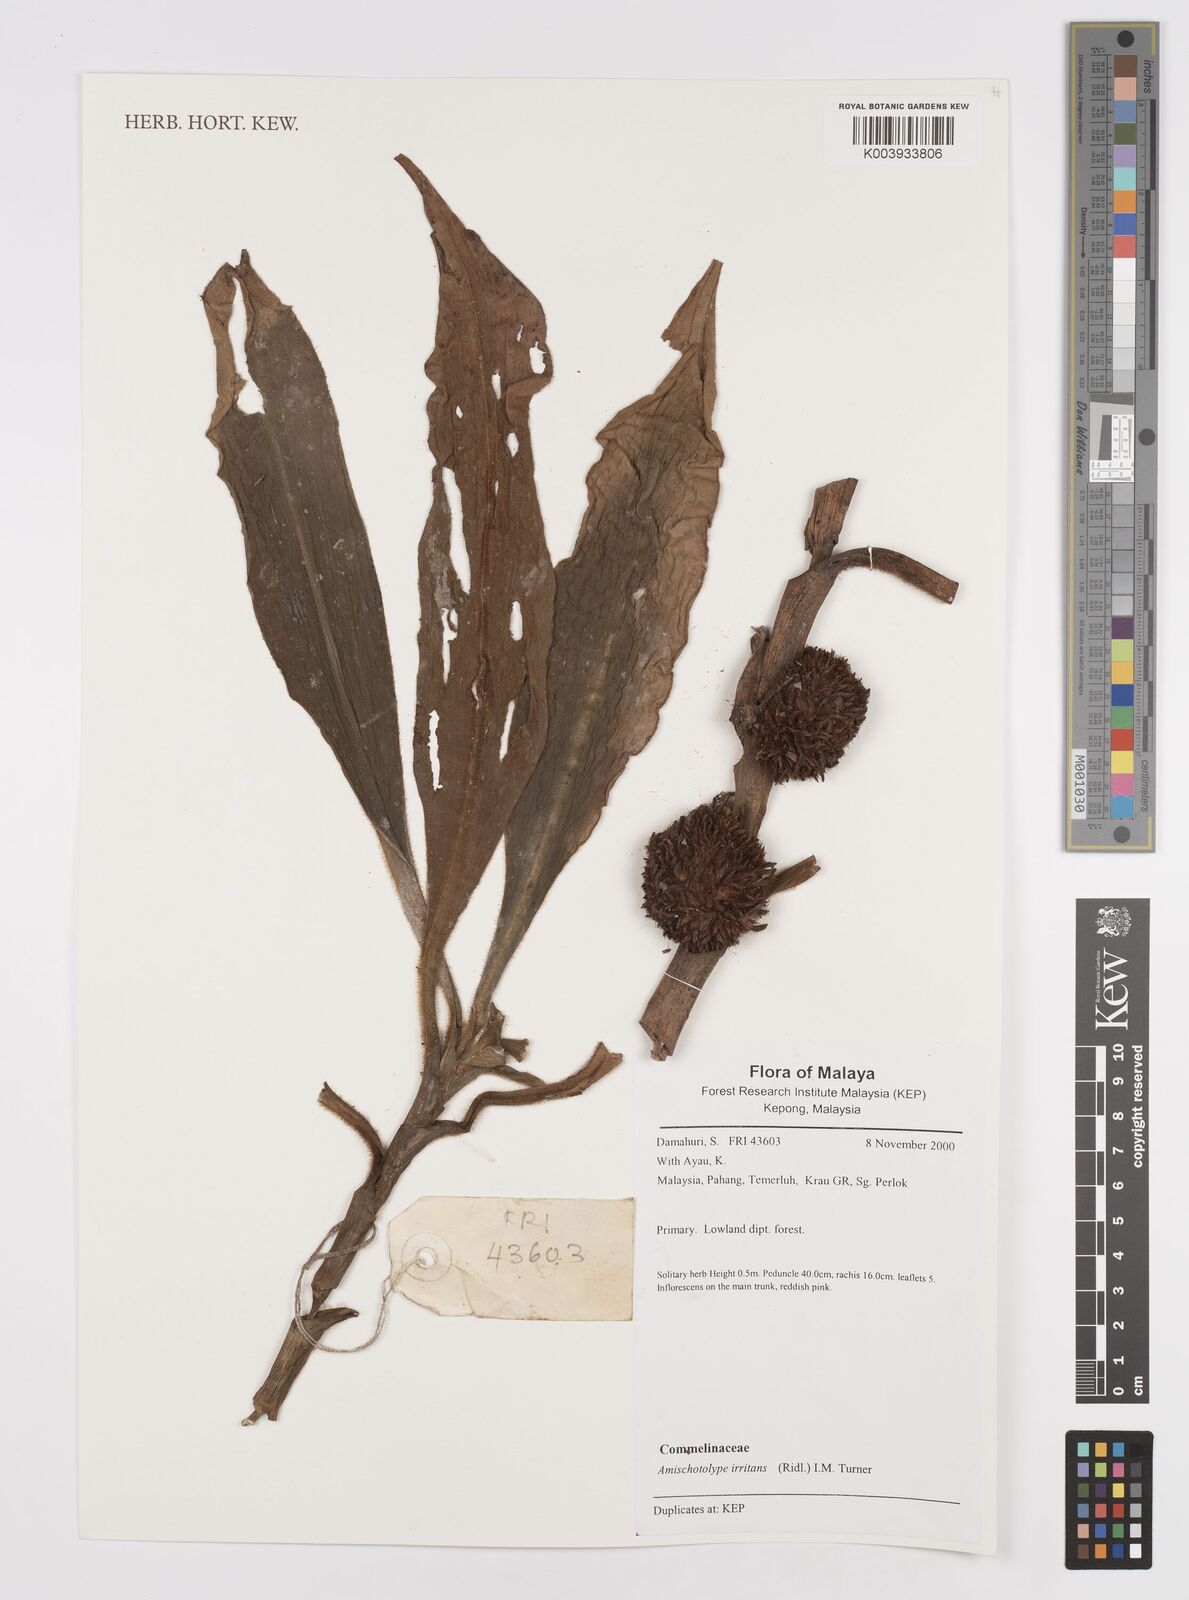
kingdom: Plantae
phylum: Tracheophyta
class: Liliopsida
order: Commelinales
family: Commelinaceae
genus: Amischotolype
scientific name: Amischotolype irritans
